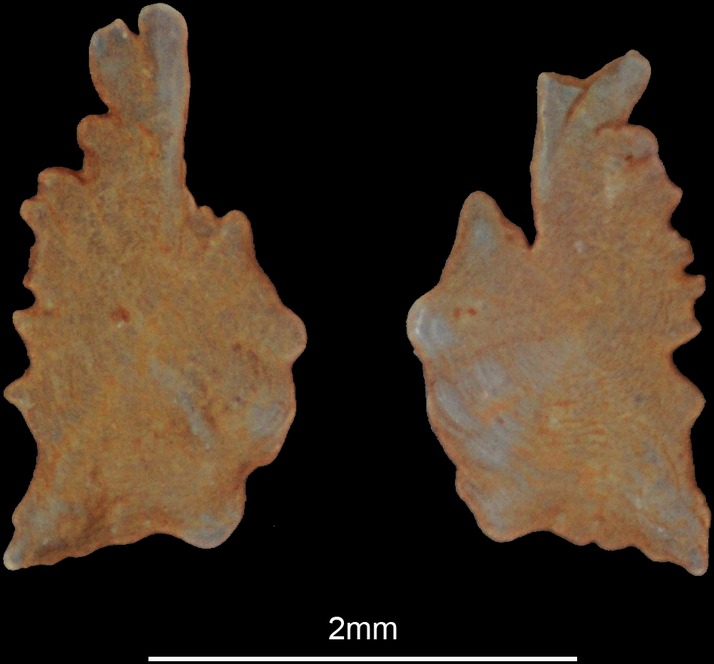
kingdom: Animalia
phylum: Chordata
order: Perciformes
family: Leiognathidae
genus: Leiognathus
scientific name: Leiognathus equulus
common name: Common ponyfish
